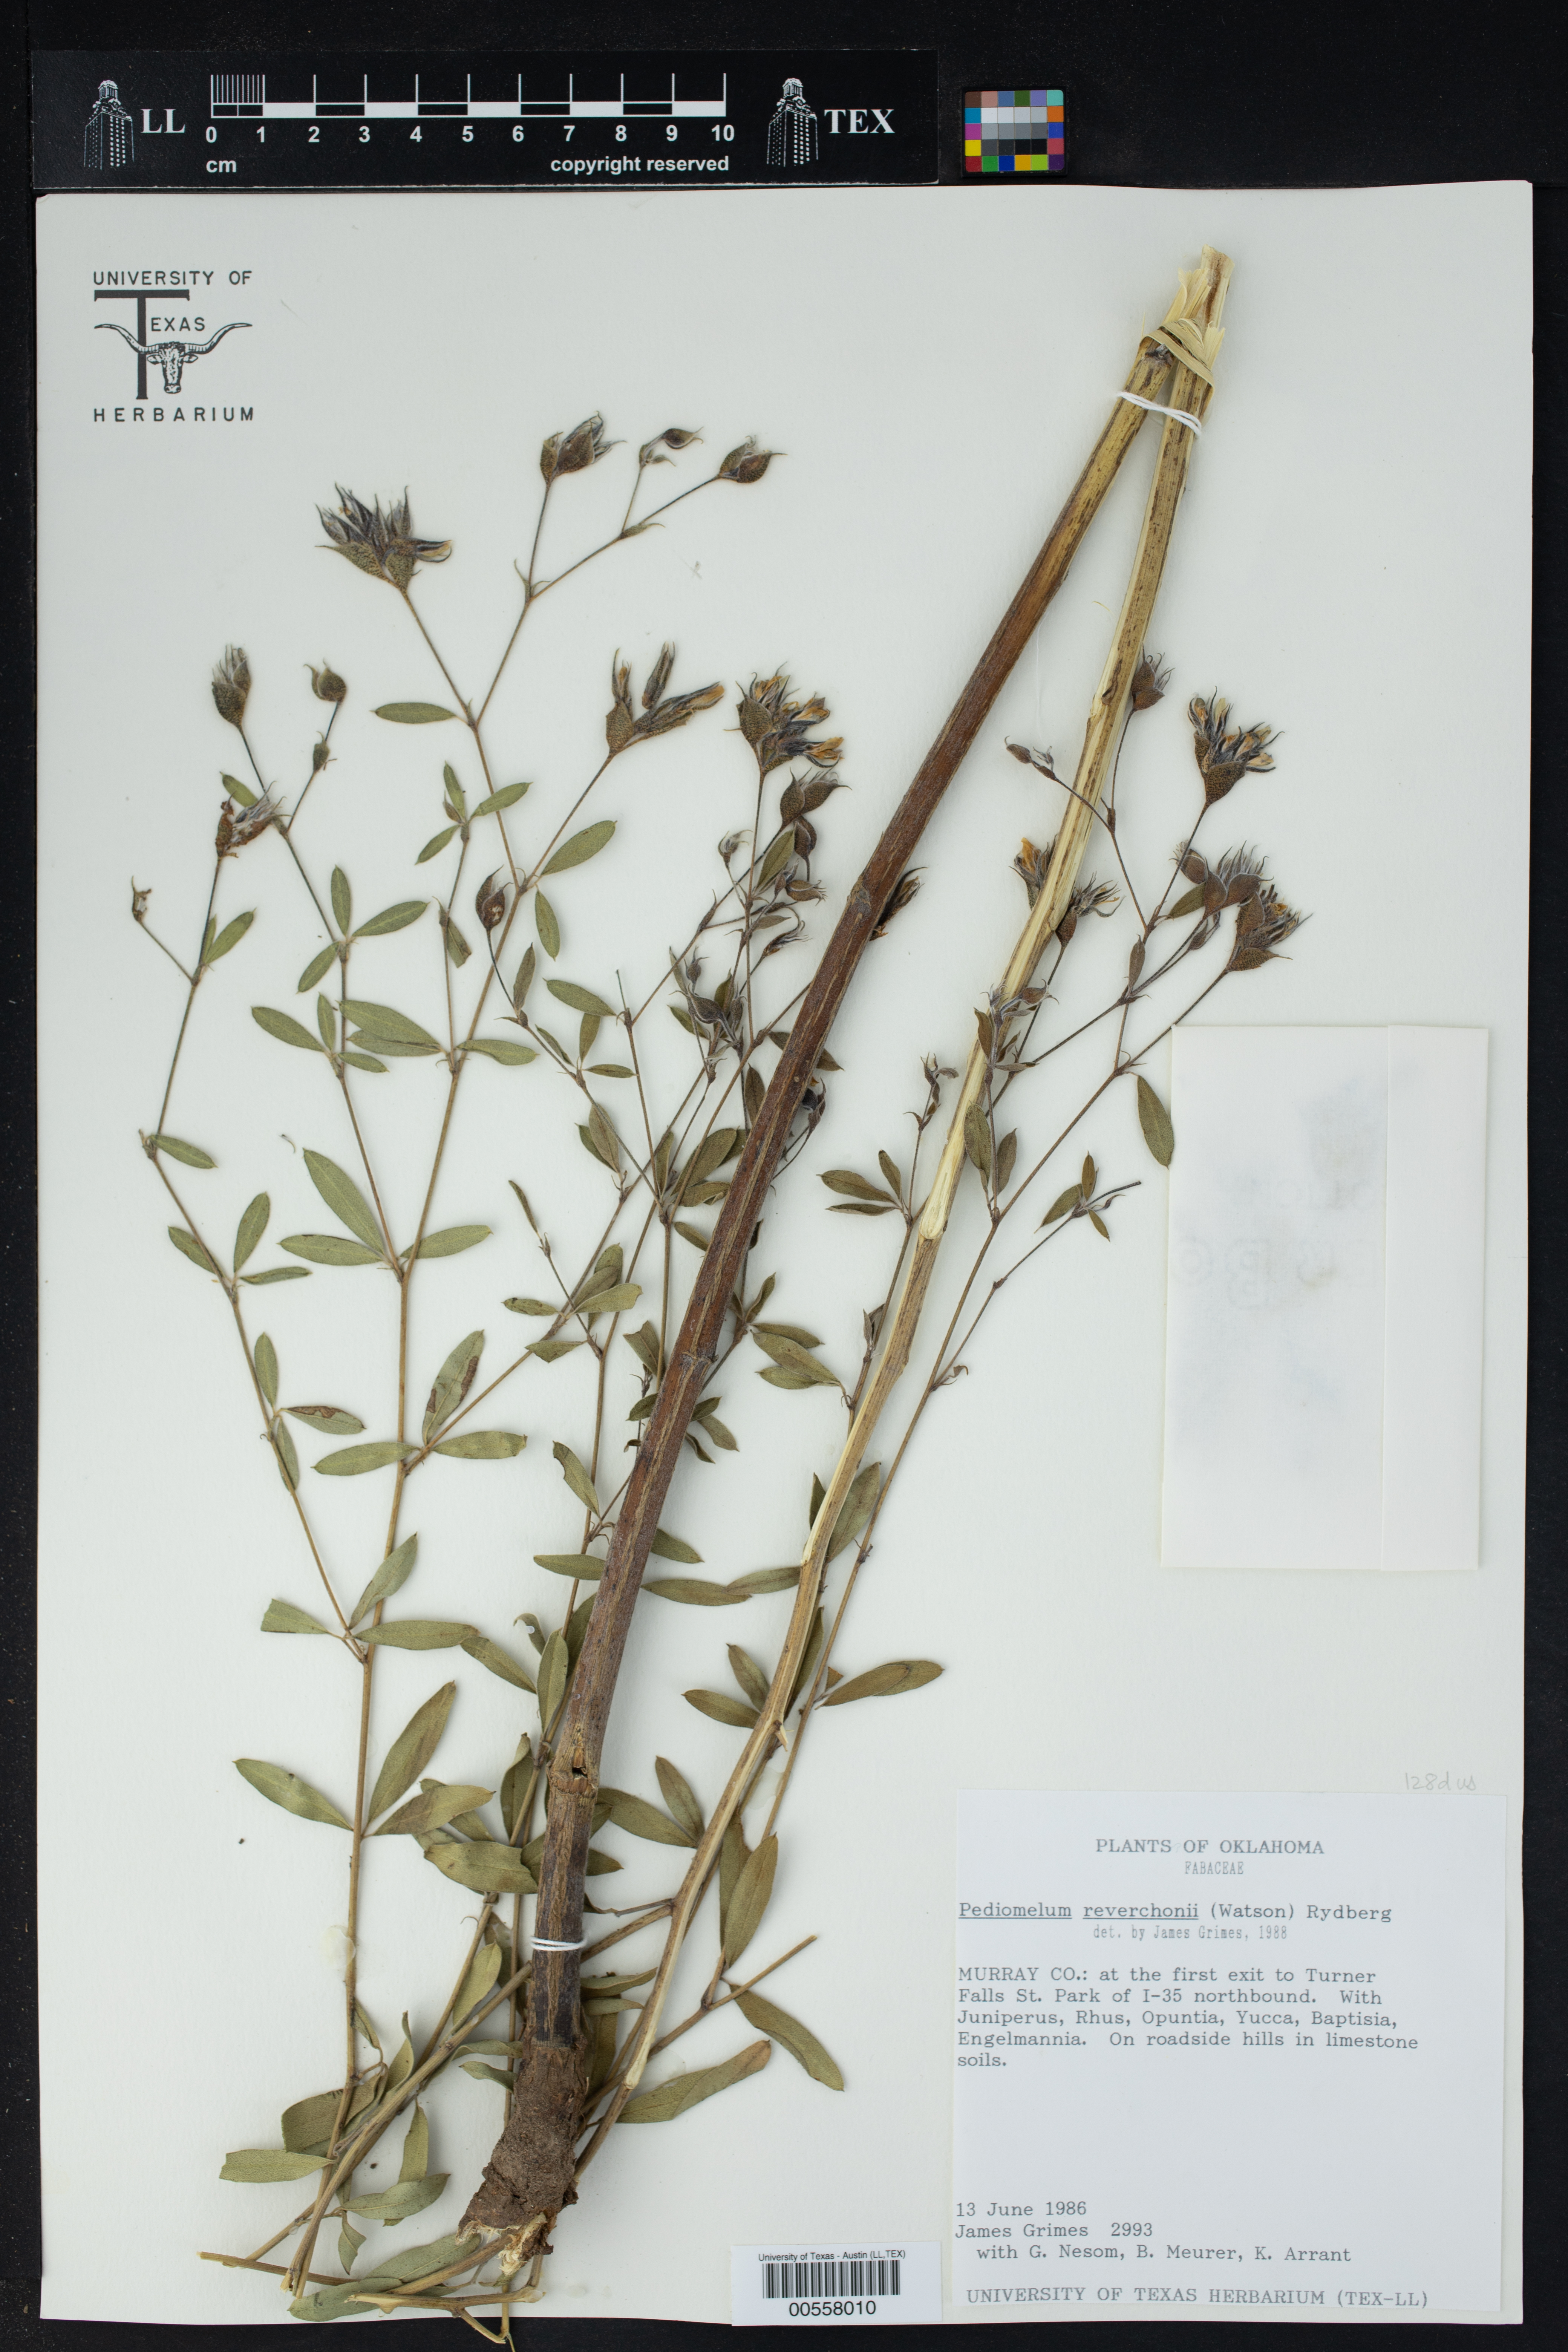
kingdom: Plantae
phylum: Tracheophyta
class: Magnoliopsida
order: Fabales
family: Fabaceae
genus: Pediomelum
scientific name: Pediomelum reverchonii
